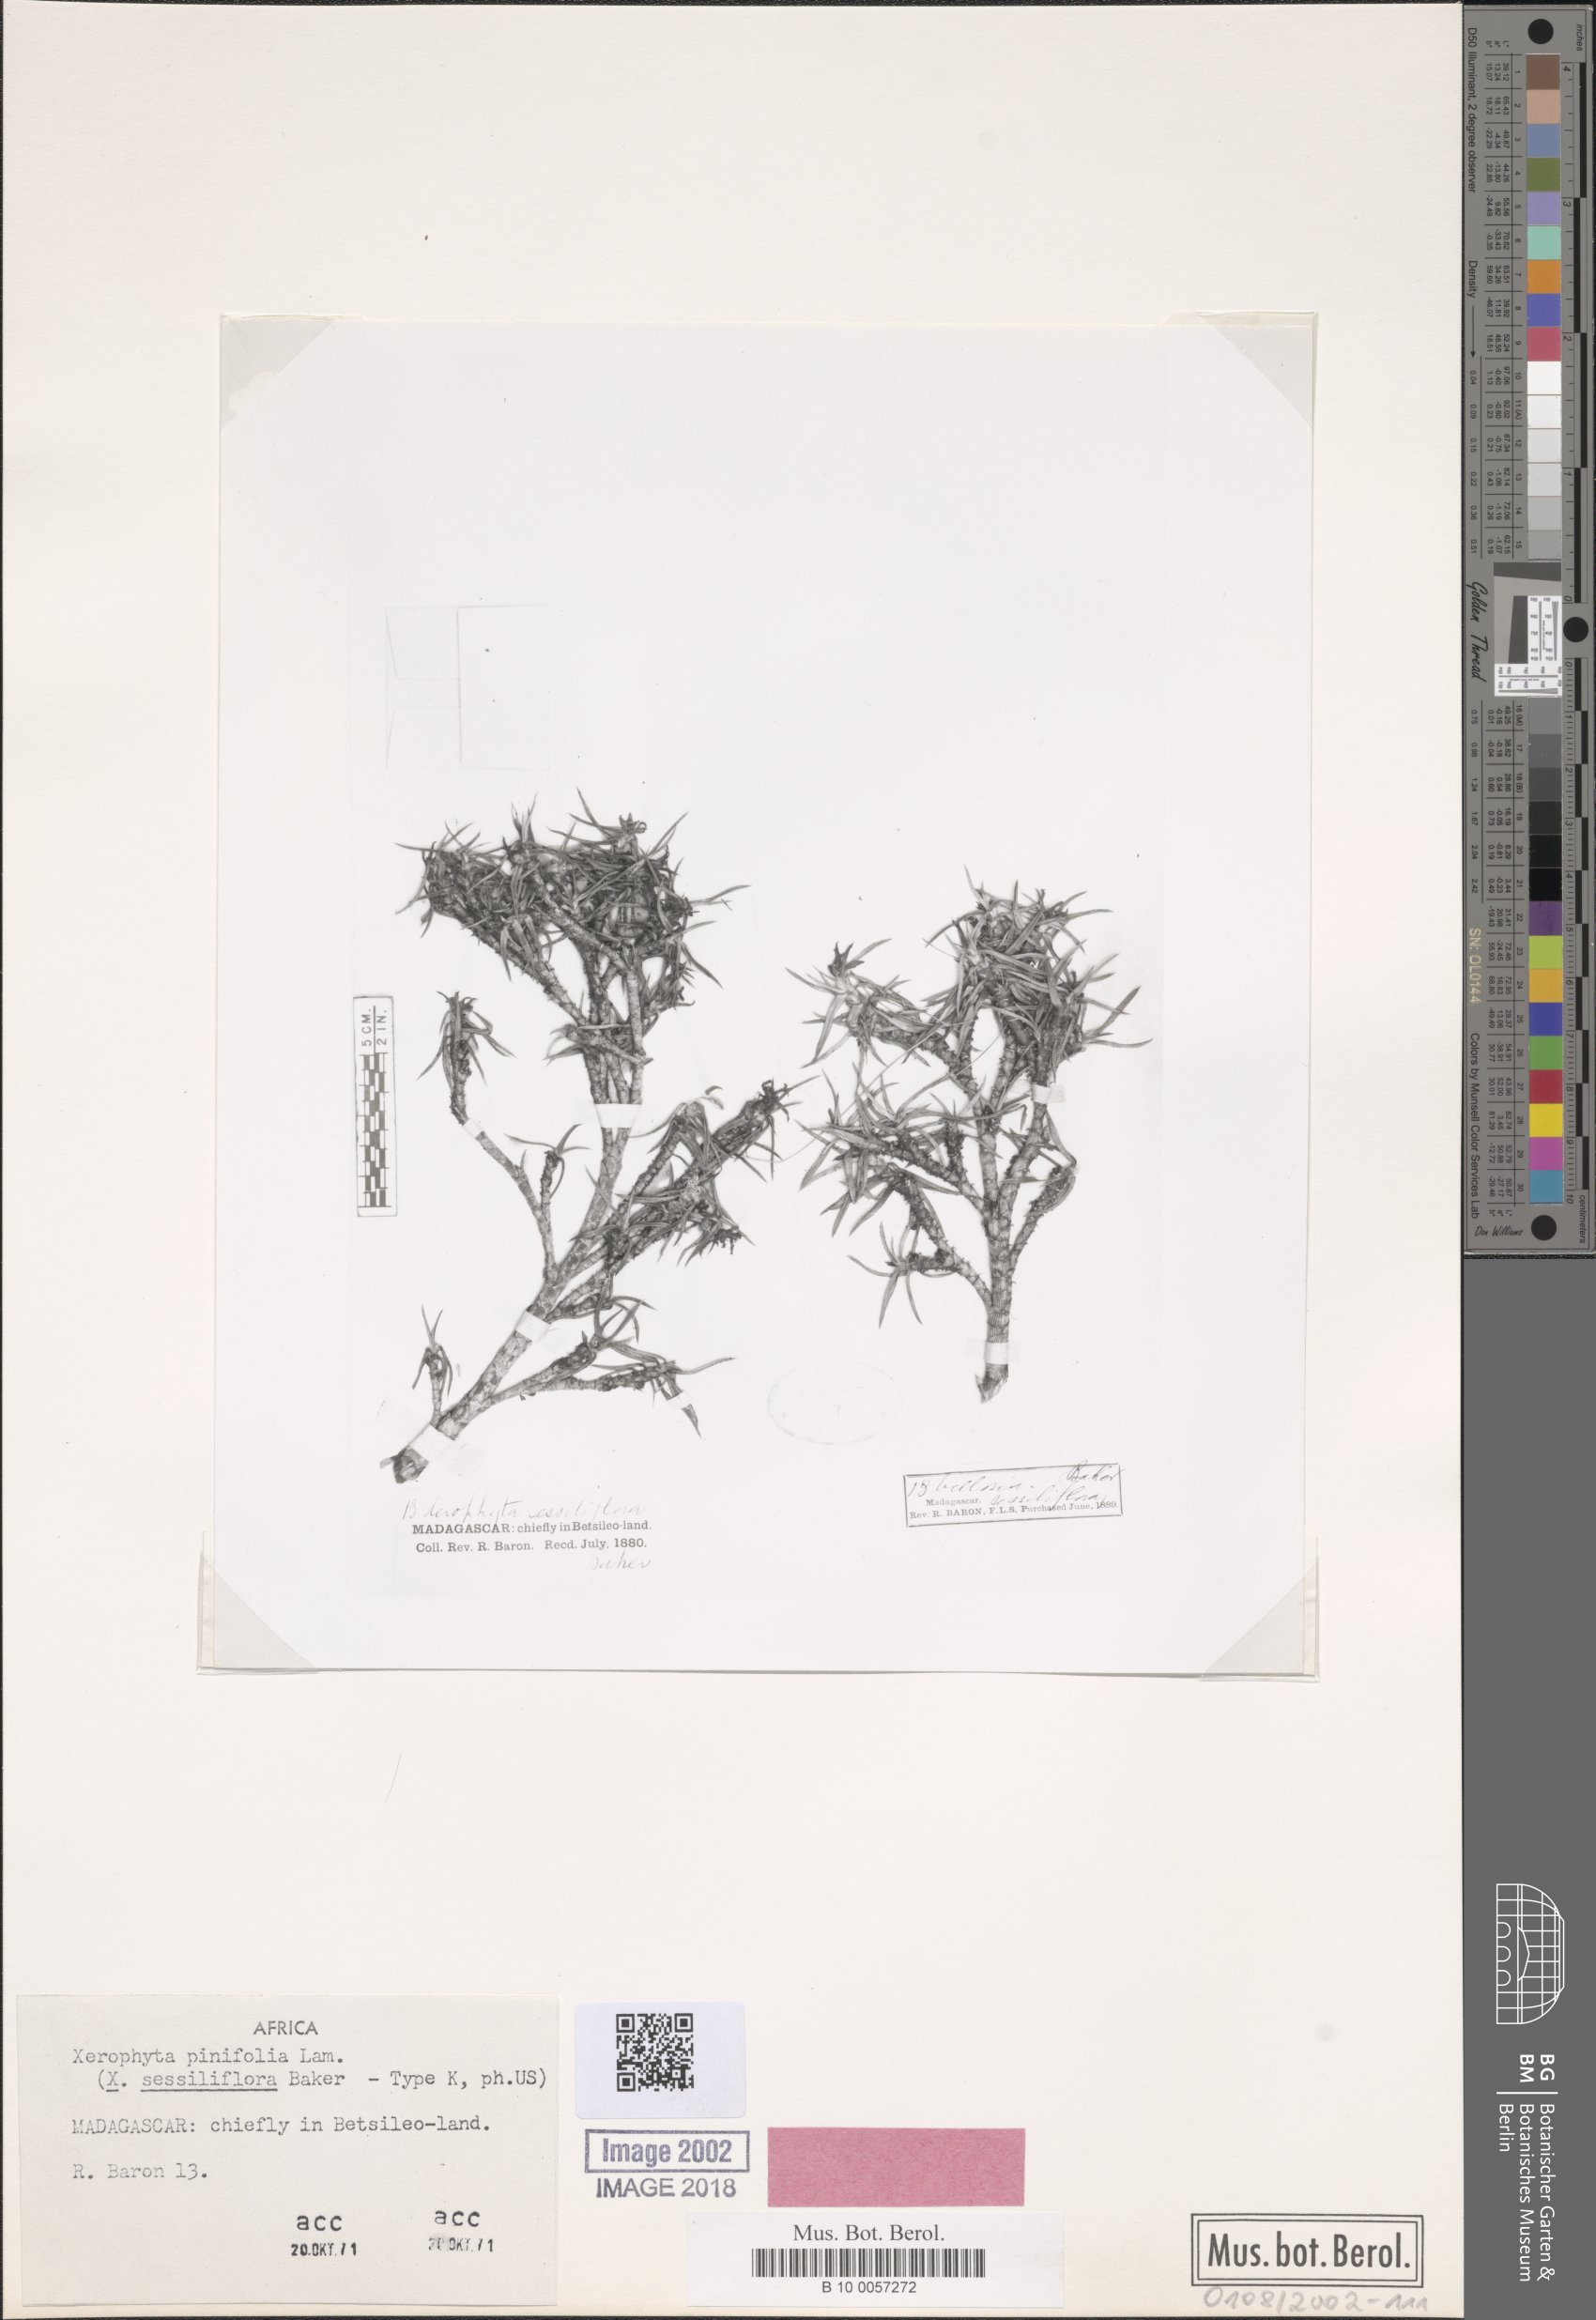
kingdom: Plantae
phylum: Tracheophyta
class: Liliopsida
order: Pandanales
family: Velloziaceae
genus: Xerophyta
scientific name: Xerophyta pinifolia
